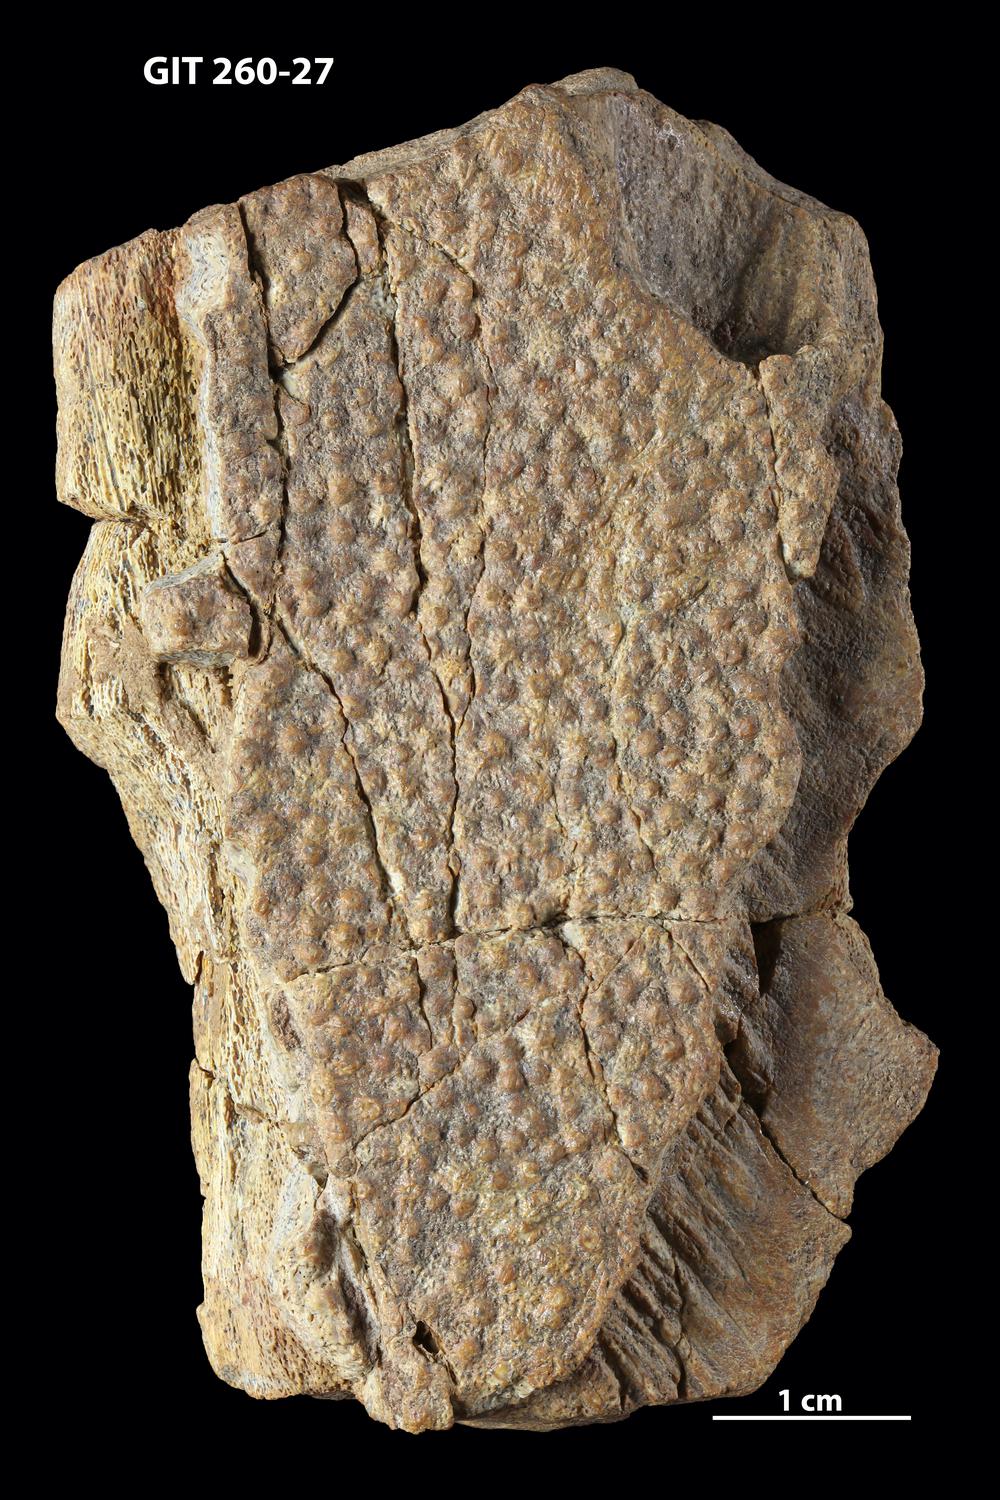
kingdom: Animalia
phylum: Chordata
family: Homostiidae
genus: Homostius
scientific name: Homostius
